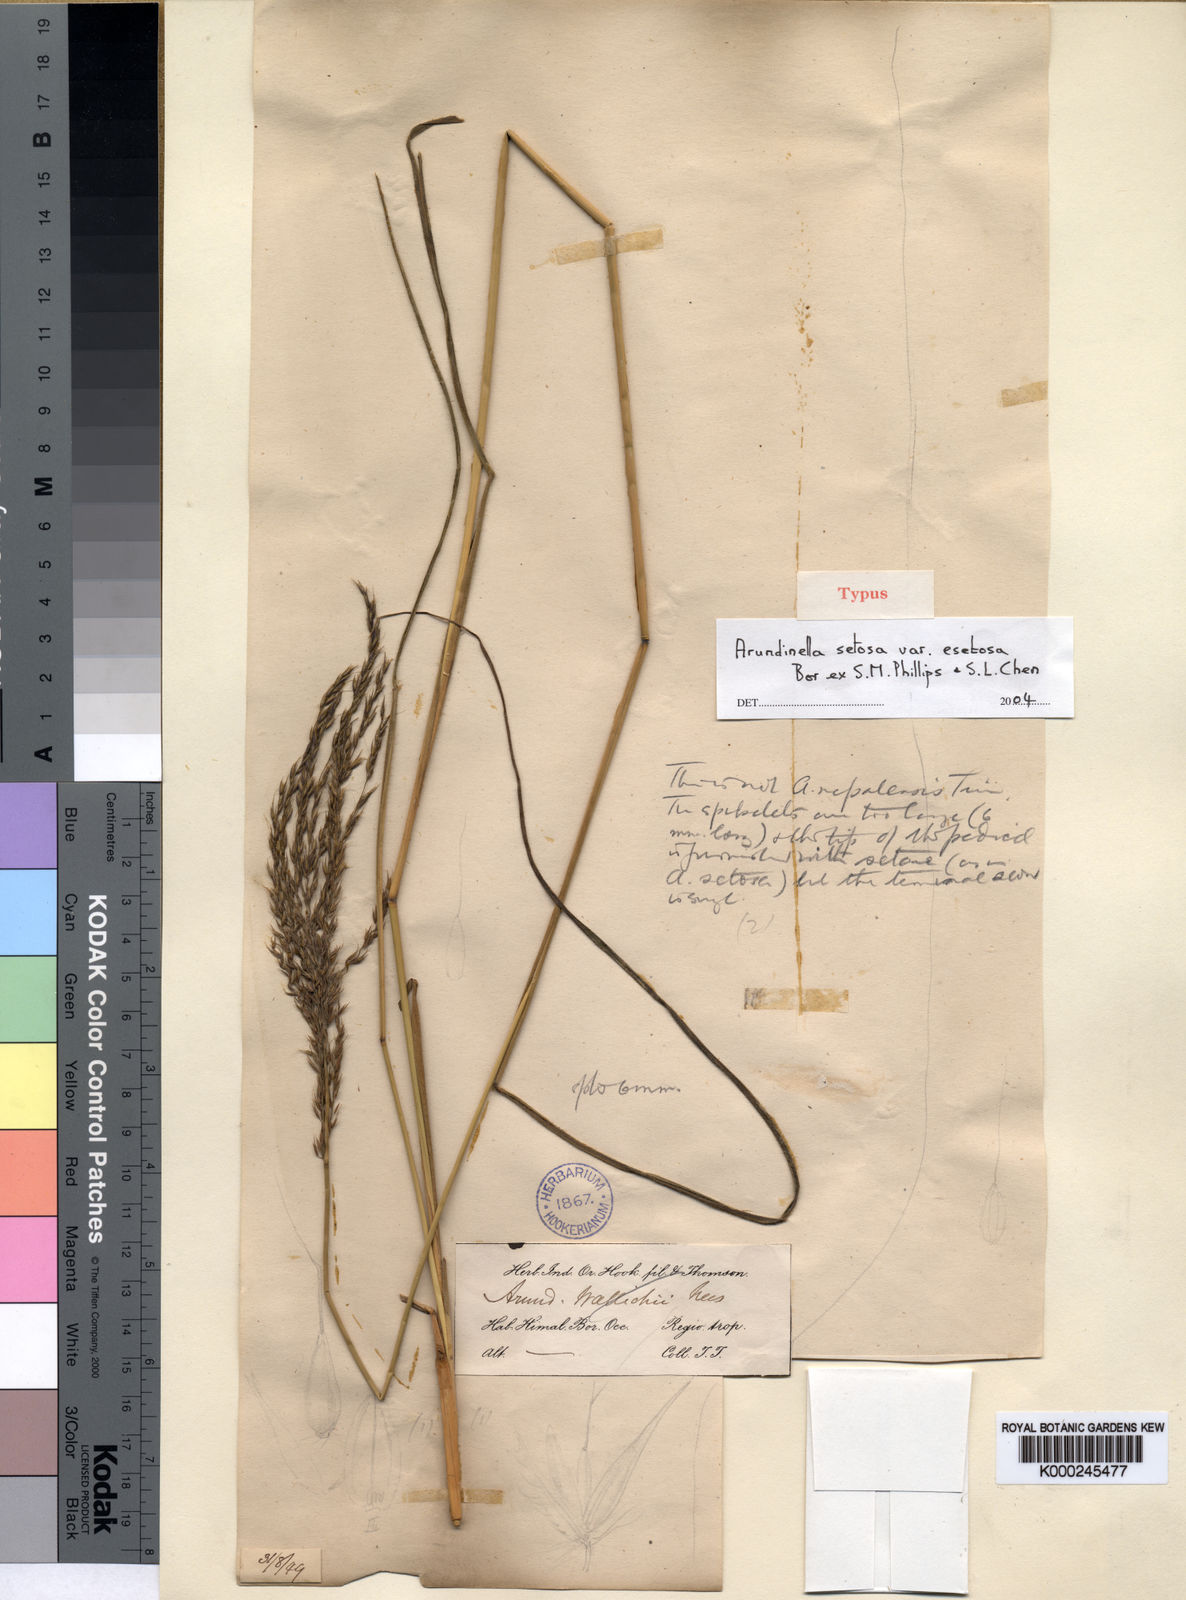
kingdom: Plantae
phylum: Tracheophyta
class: Liliopsida
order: Poales
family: Poaceae
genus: Arundinella
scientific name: Arundinella setosa
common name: Reed grass
